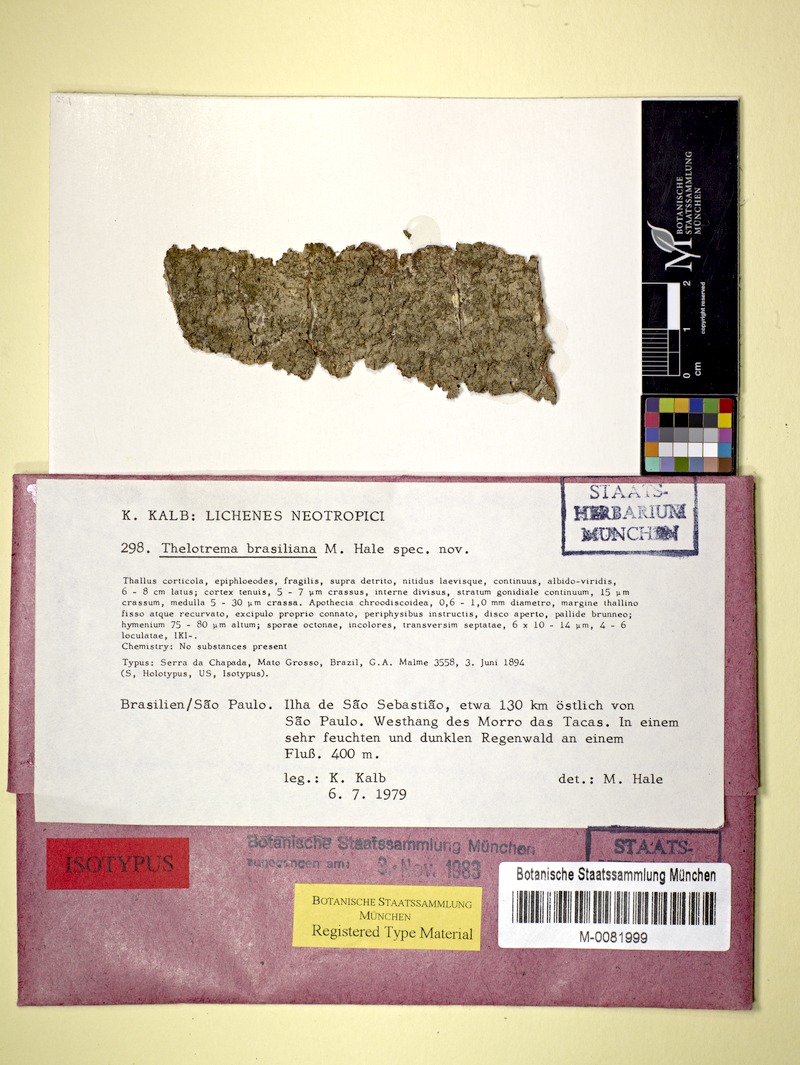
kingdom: Fungi
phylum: Ascomycota
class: Lecanoromycetes
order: Ostropales
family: Graphidaceae
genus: Acanthotrema
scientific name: Acanthotrema brasilianum
